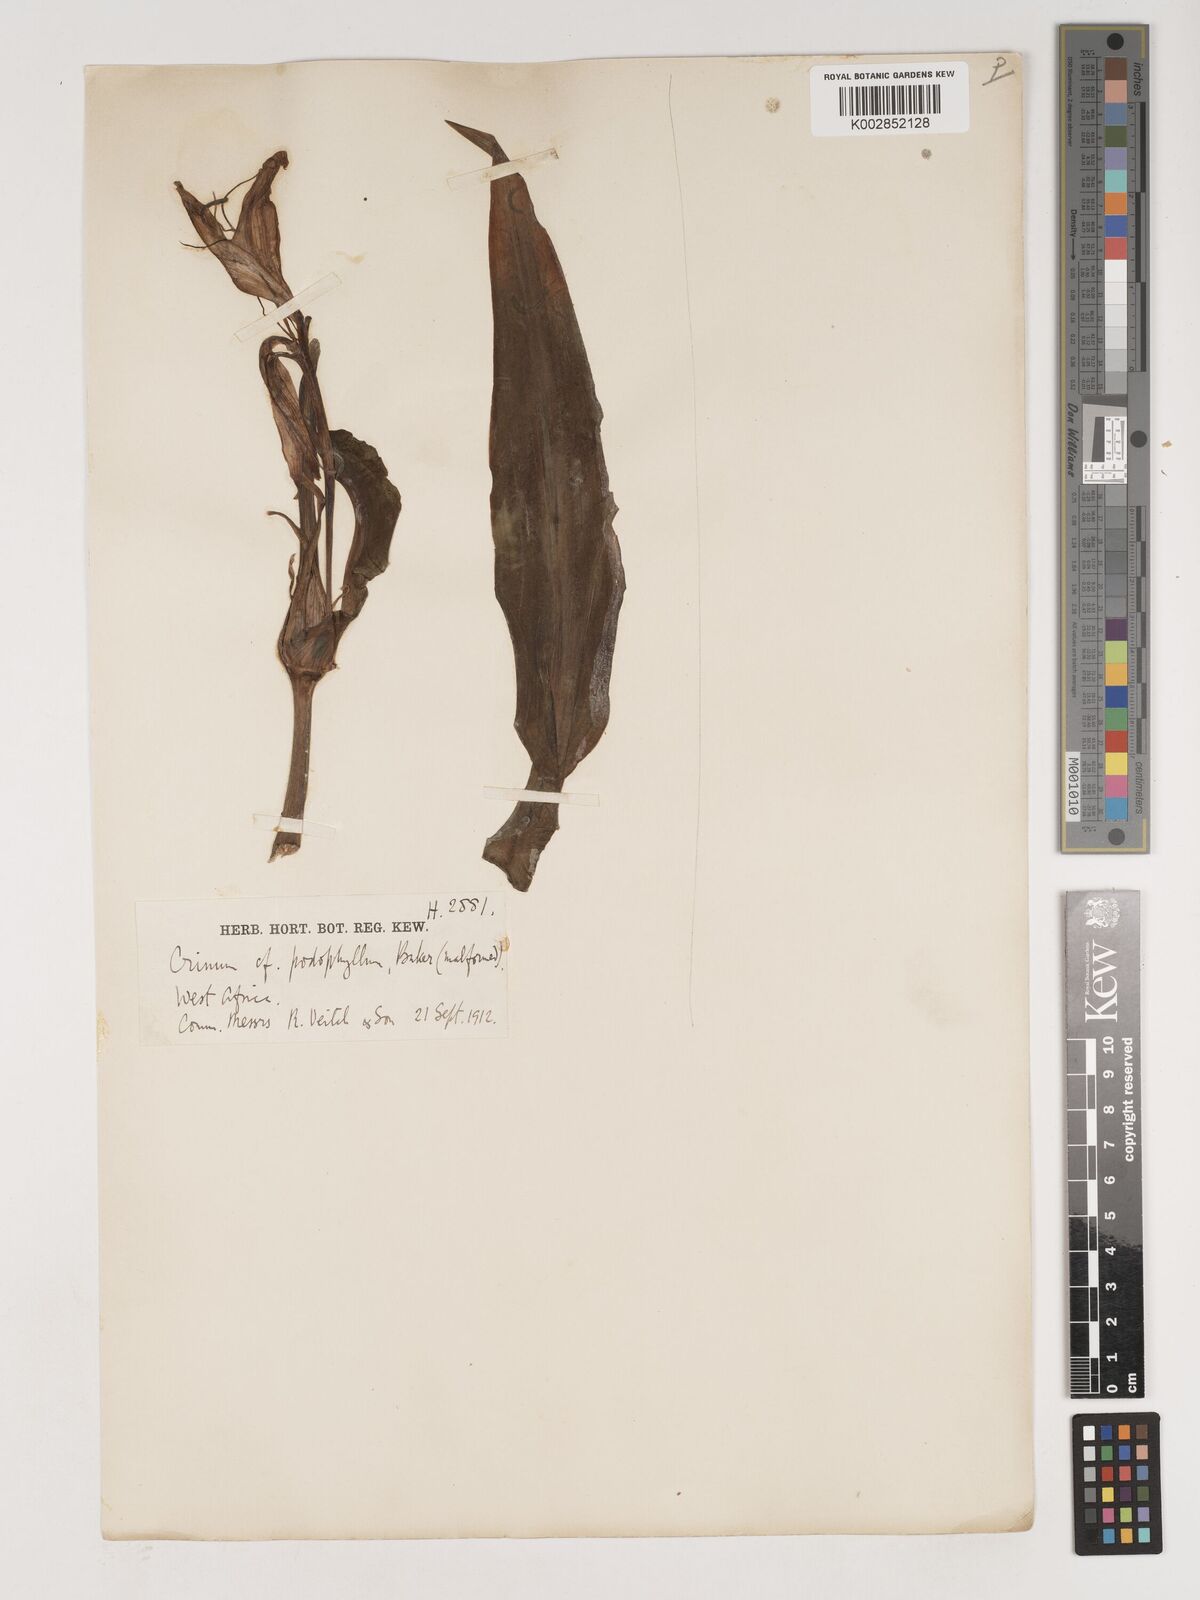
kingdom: Plantae
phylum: Tracheophyta
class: Liliopsida
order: Asparagales
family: Amaryllidaceae
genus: Crinum
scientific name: Crinum jagus
